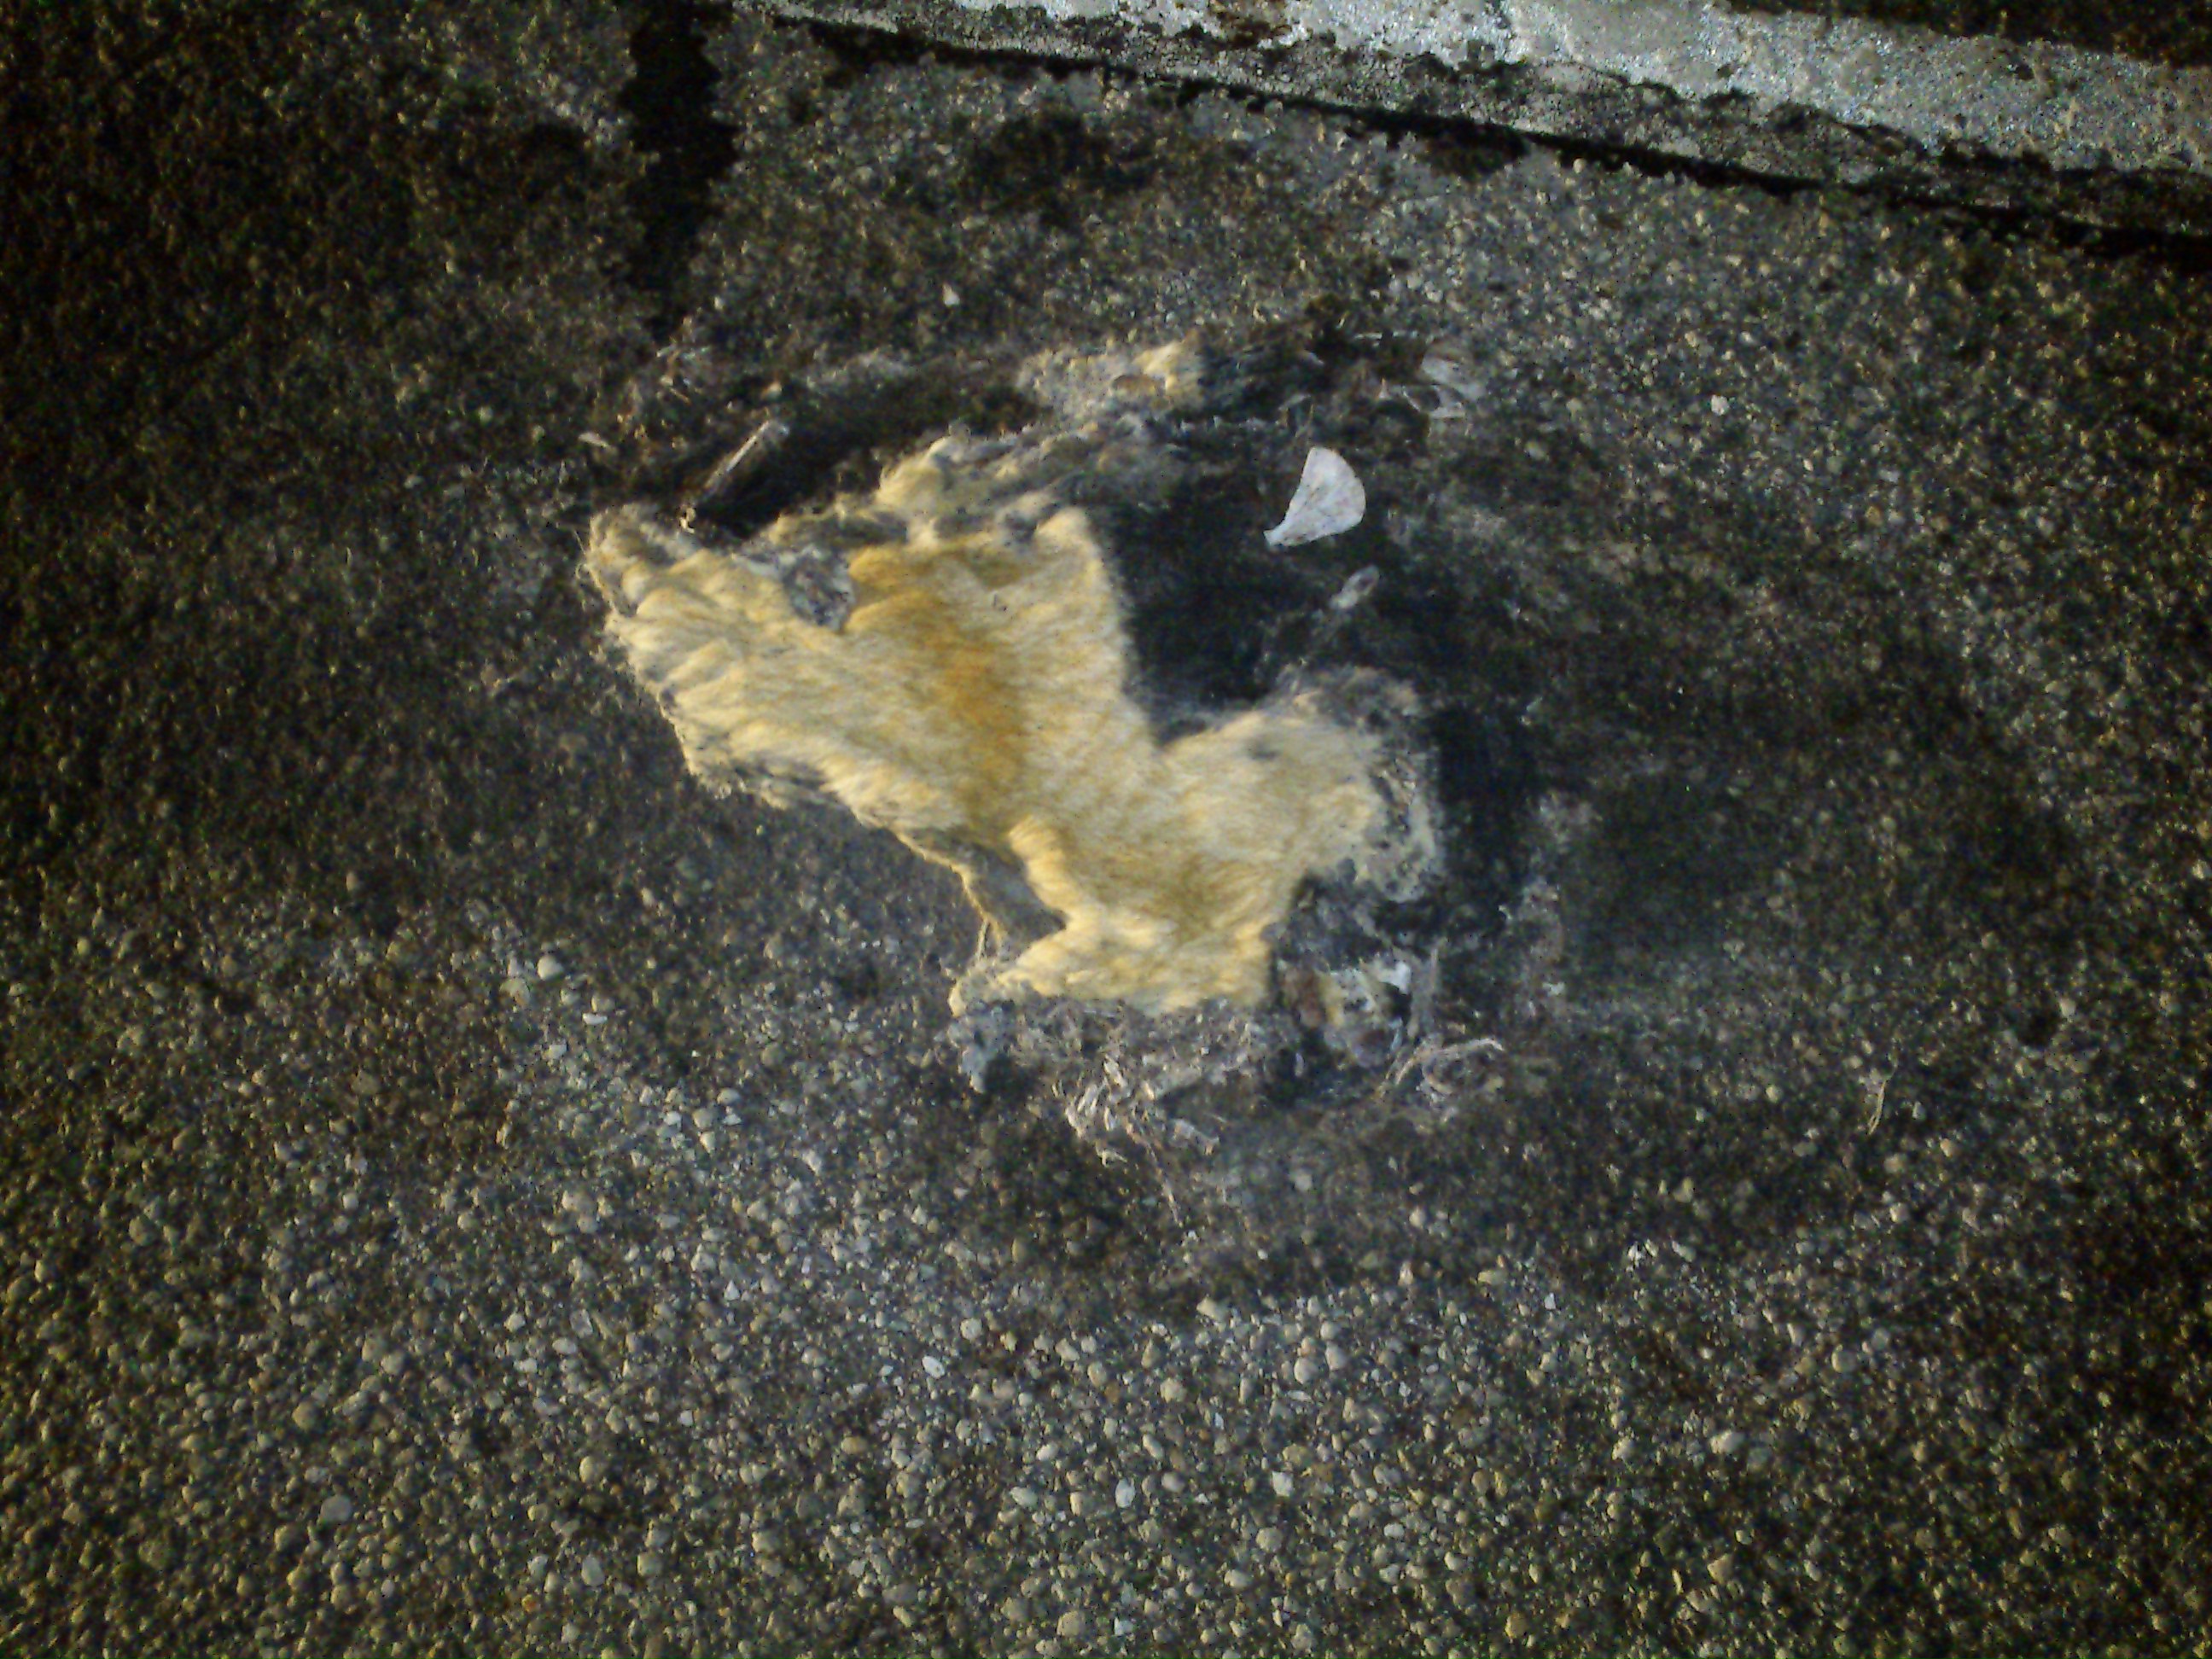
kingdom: Animalia
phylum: Chordata
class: Mammalia
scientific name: Mammalia
